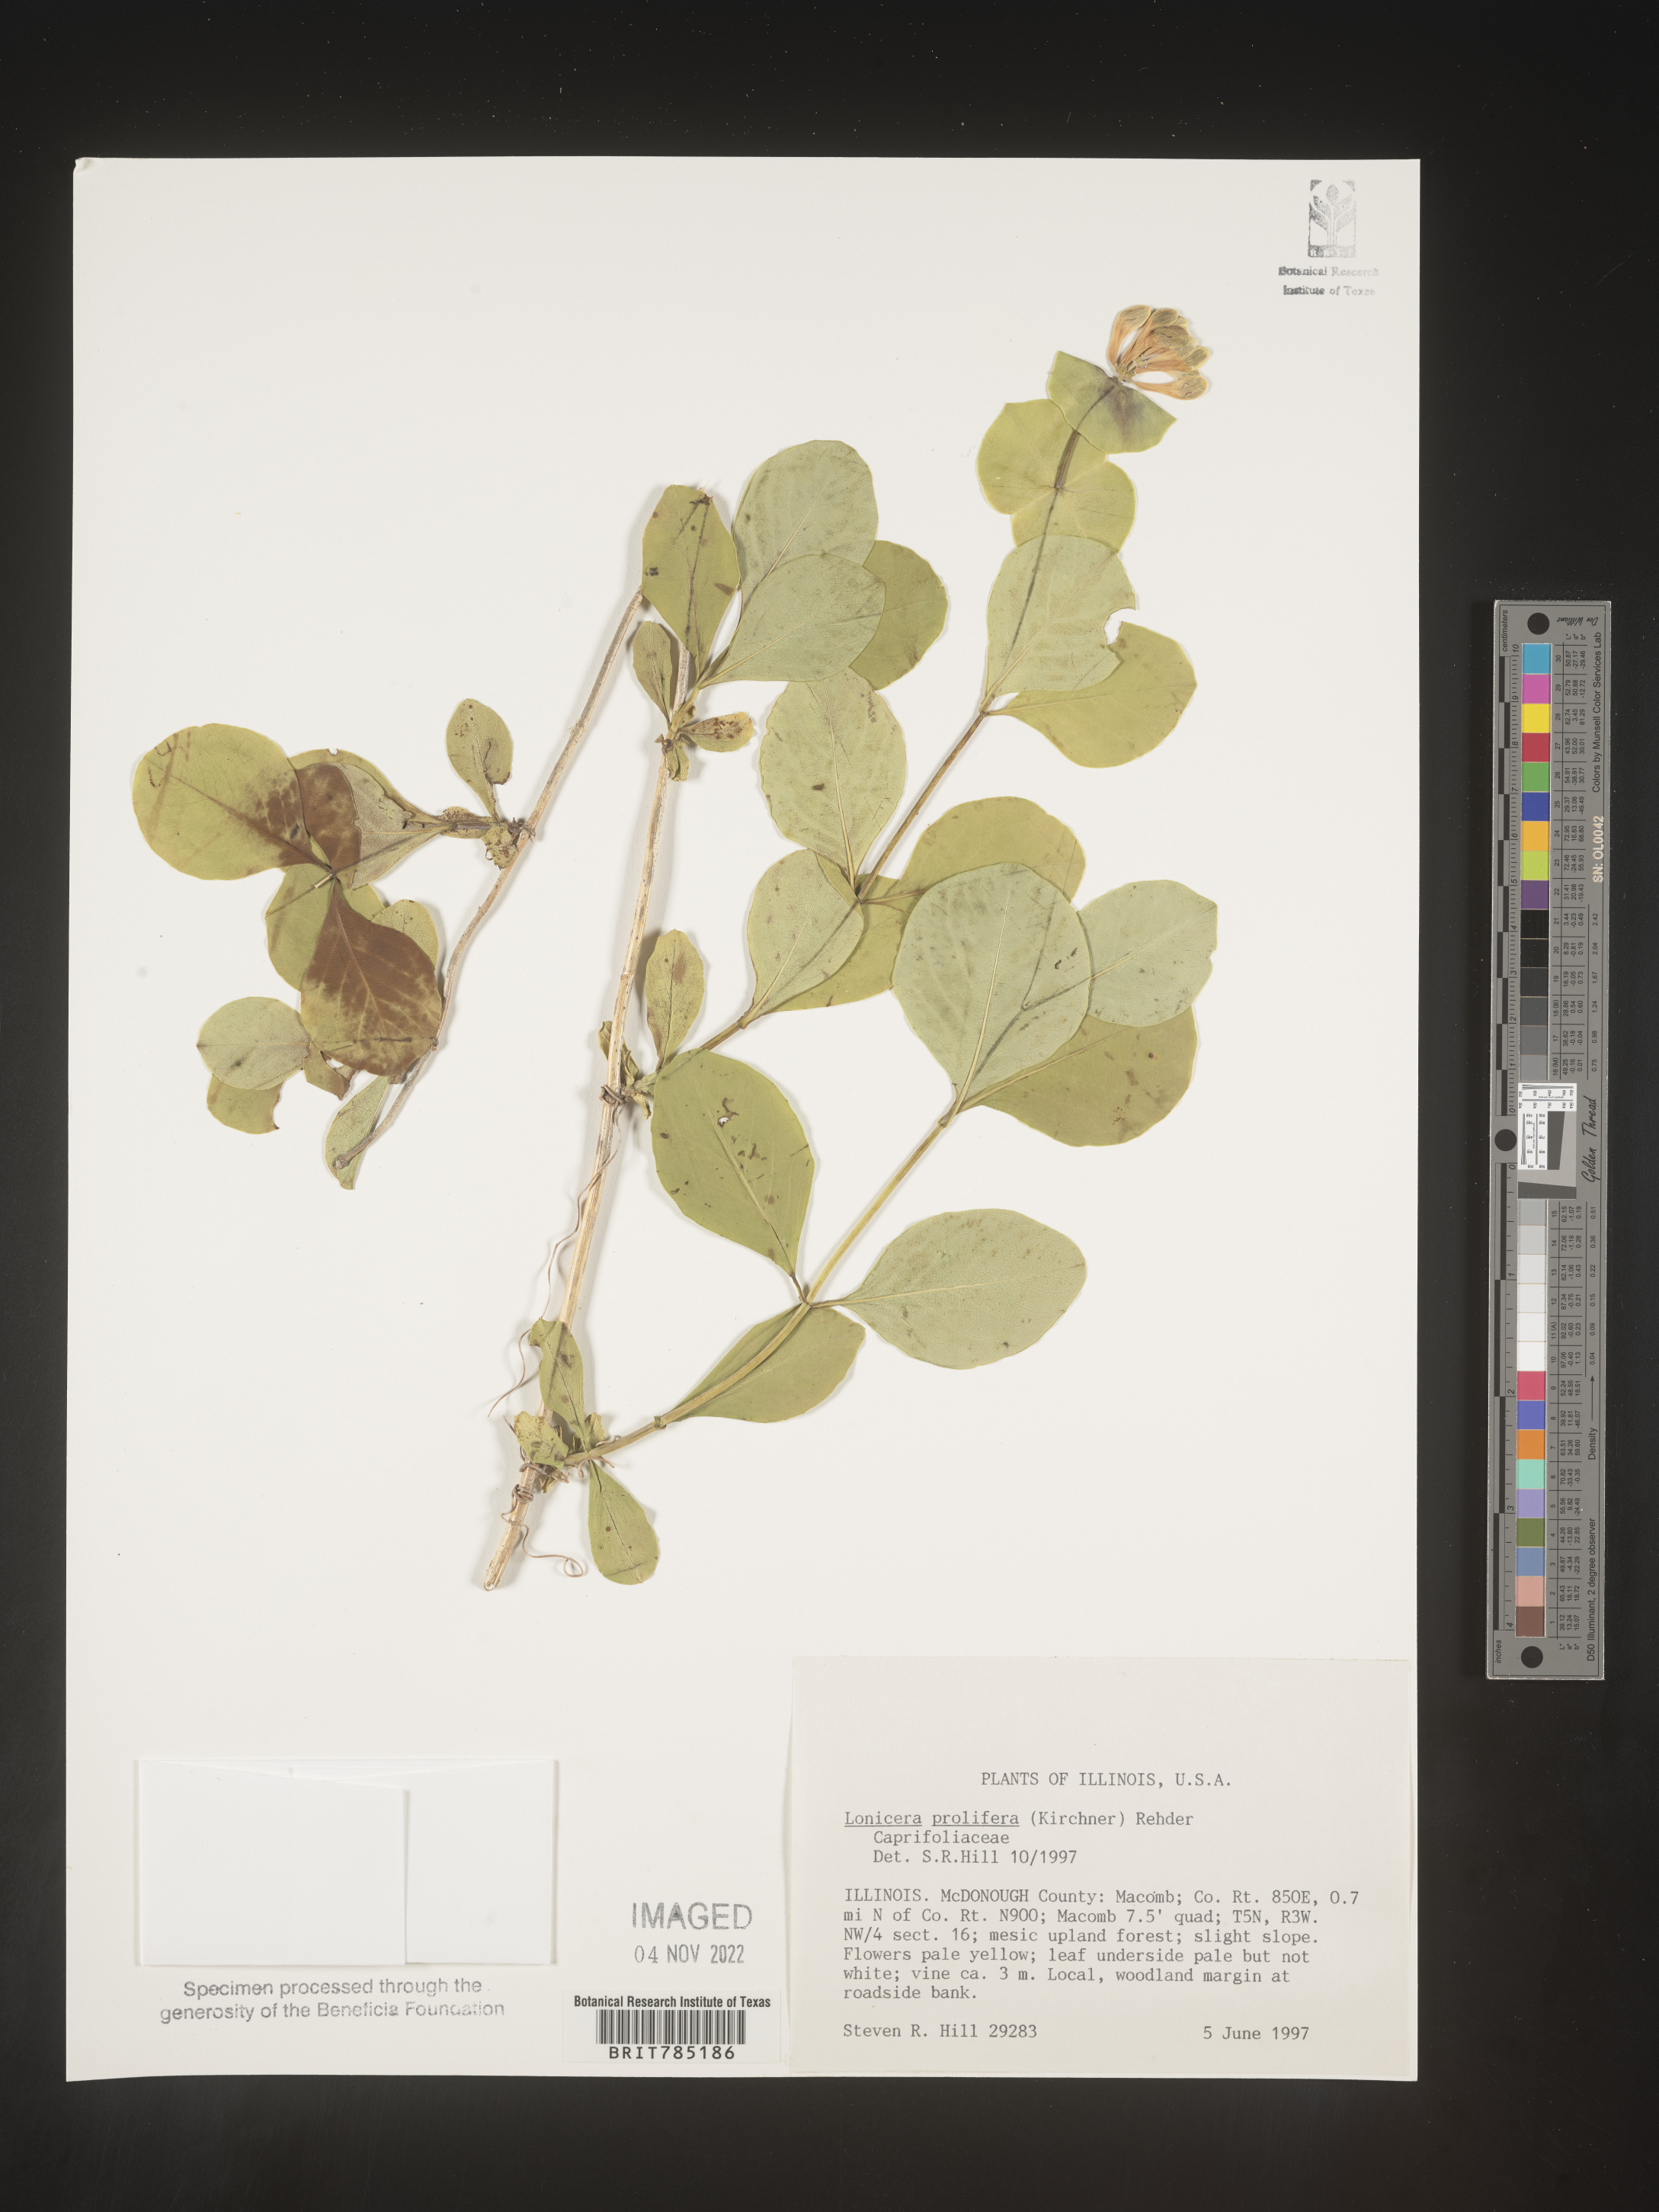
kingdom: Plantae
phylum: Tracheophyta
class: Magnoliopsida
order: Dipsacales
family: Caprifoliaceae
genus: Lonicera
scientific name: Lonicera
